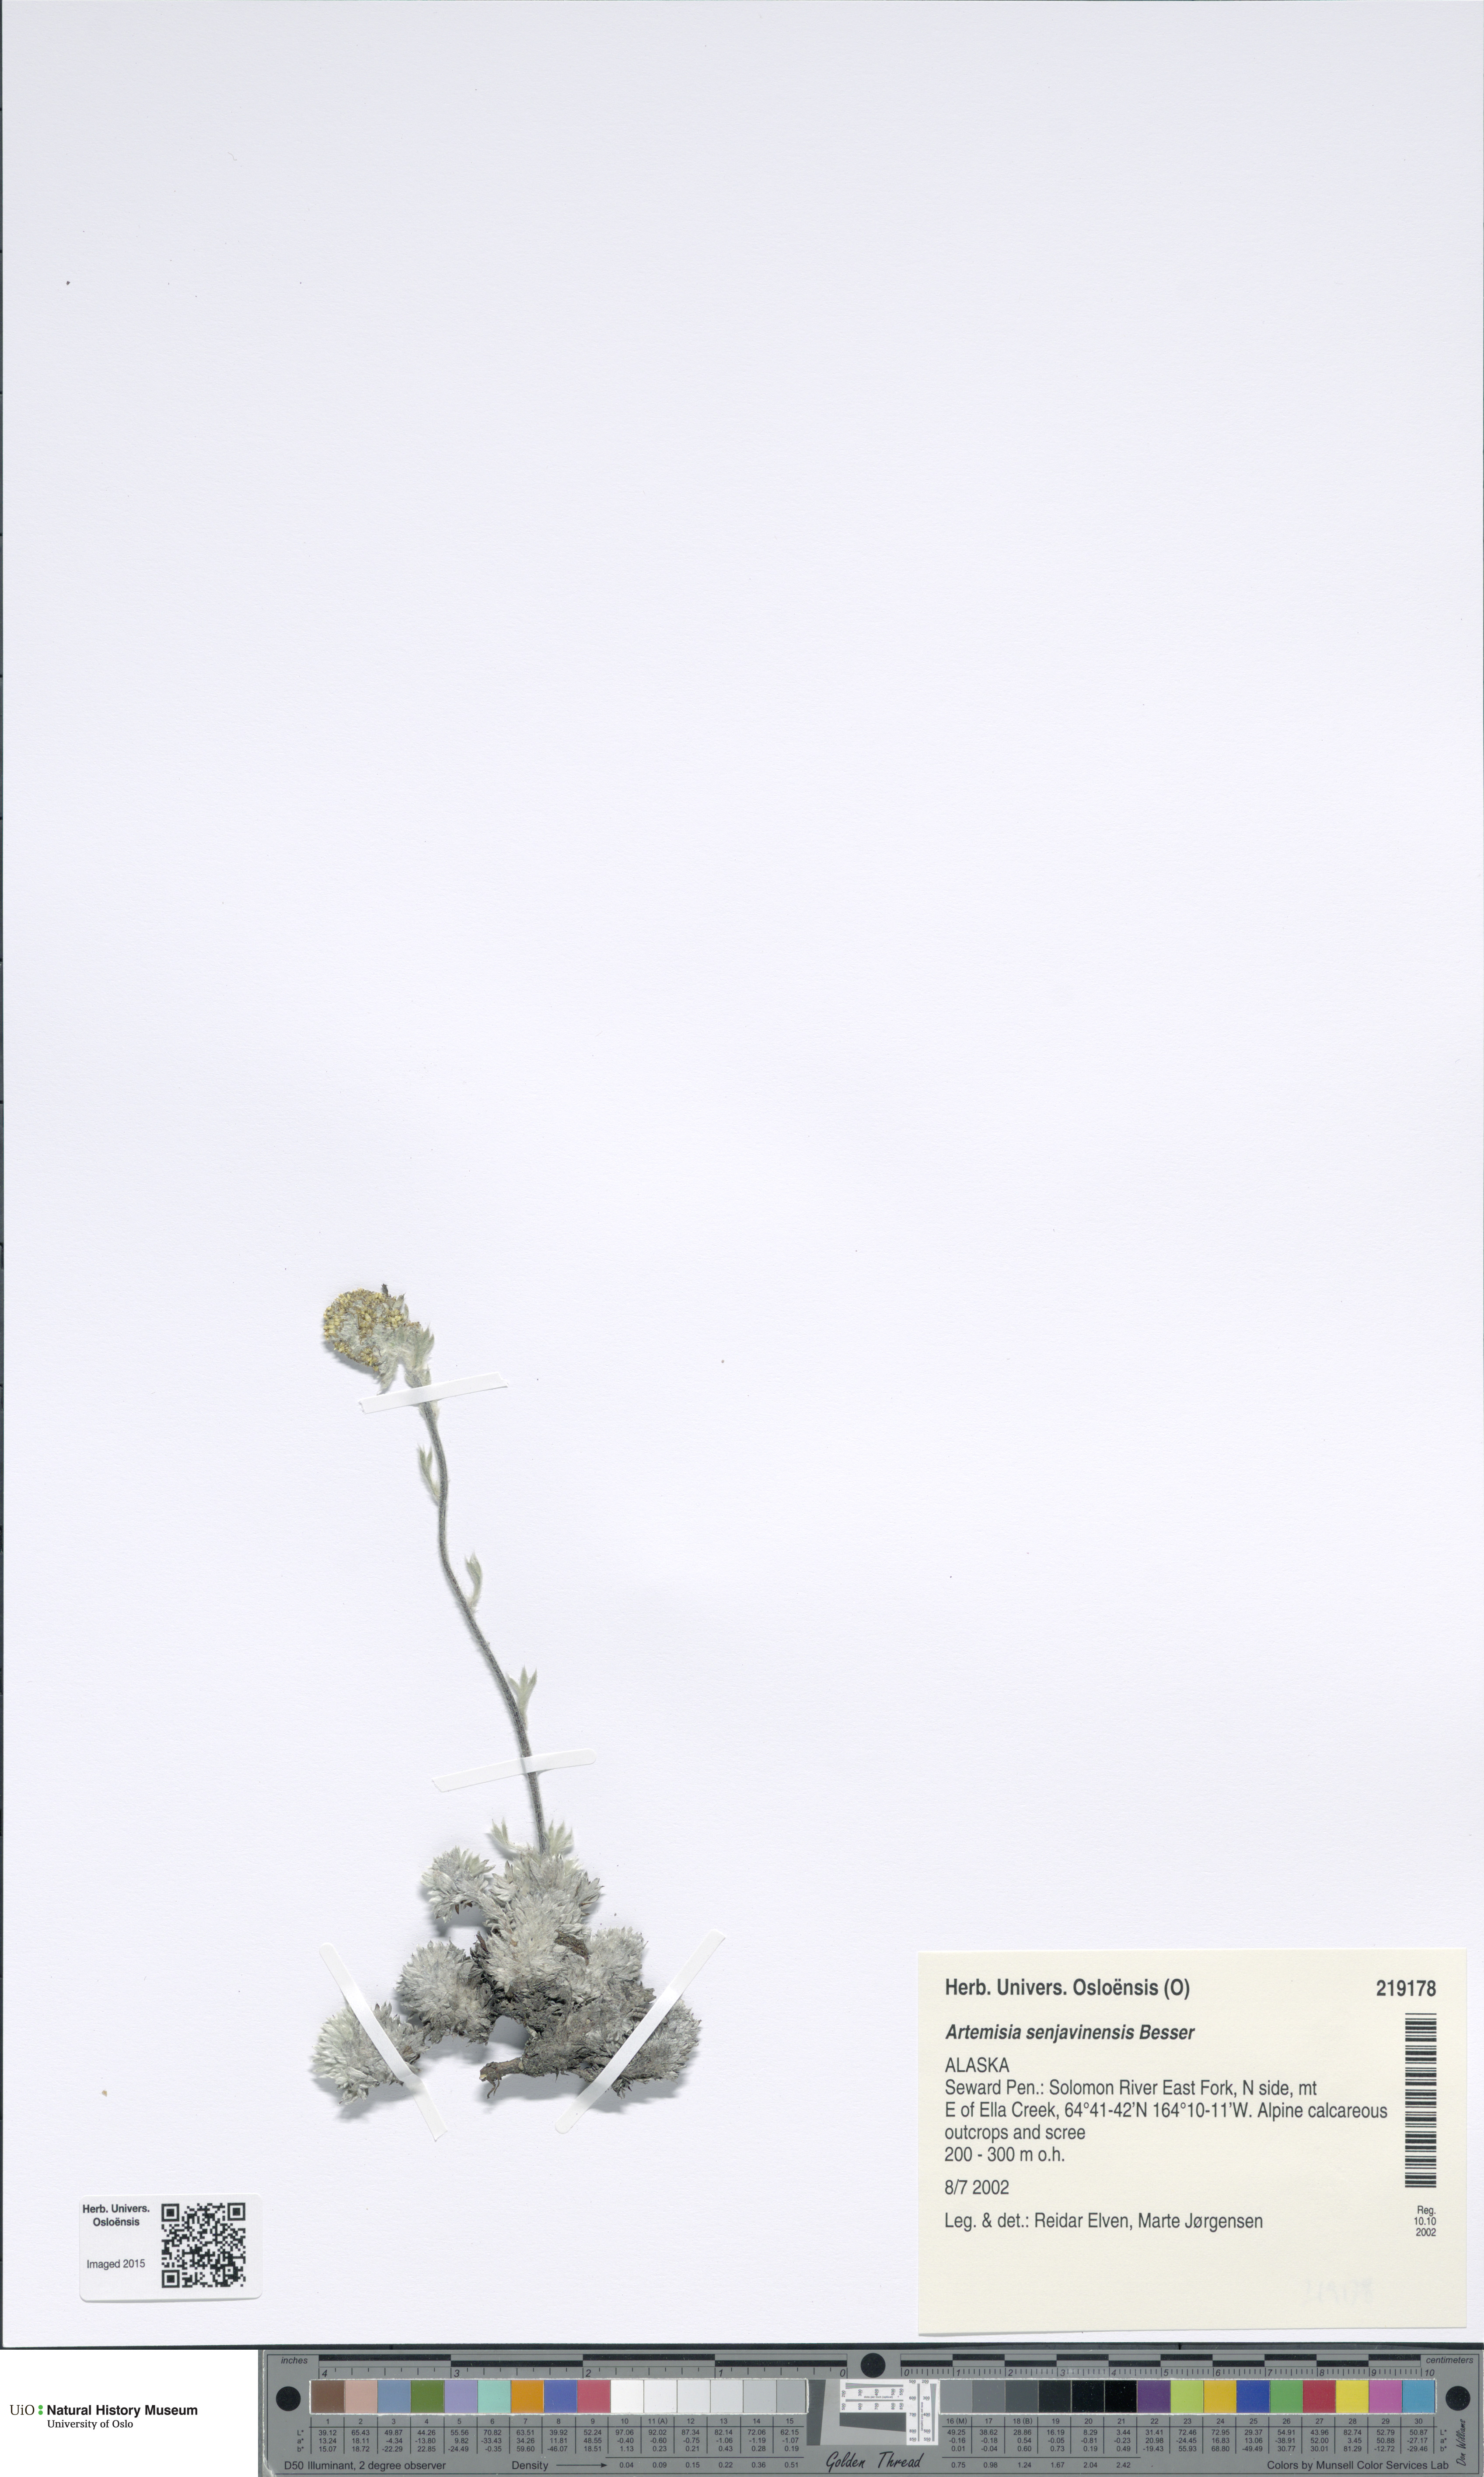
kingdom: Plantae
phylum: Tracheophyta
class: Magnoliopsida
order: Asterales
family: Asteraceae
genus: Artemisia
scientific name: Artemisia senjavinensis
